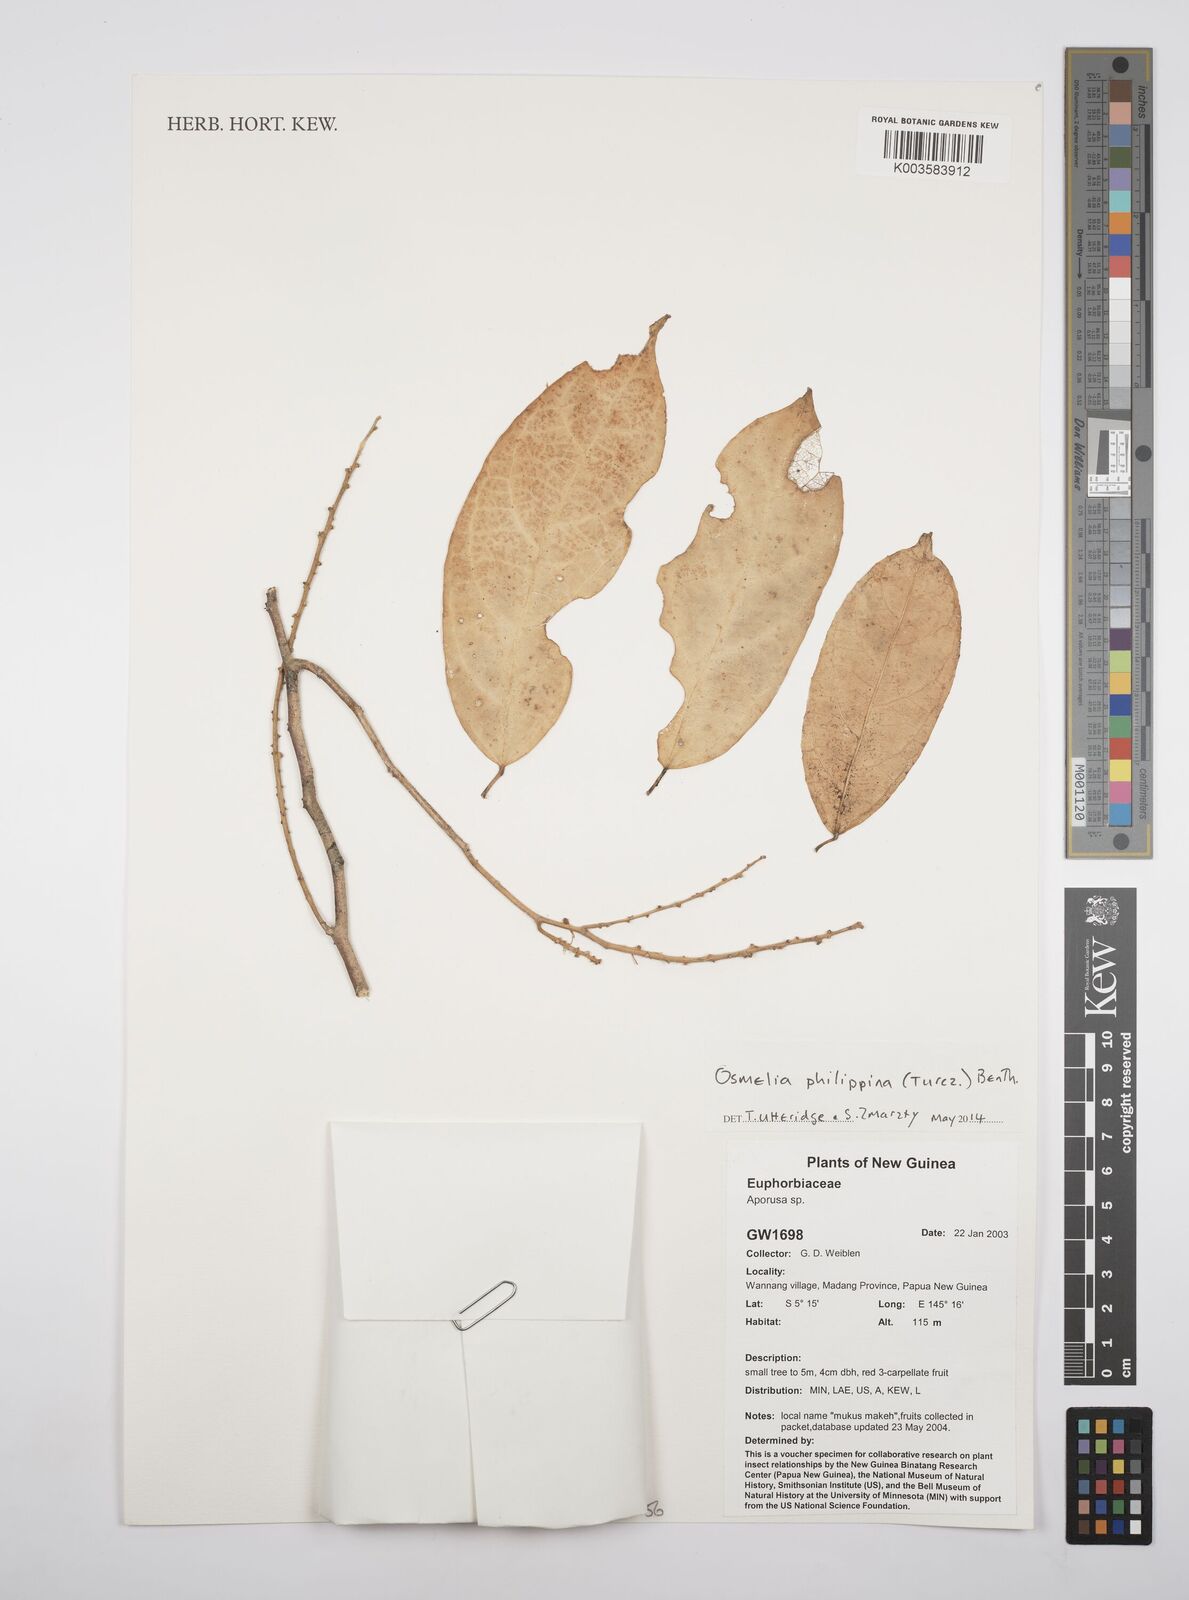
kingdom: Plantae
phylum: Tracheophyta
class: Magnoliopsida
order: Malpighiales
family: Salicaceae
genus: Osmelia
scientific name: Osmelia philippina
